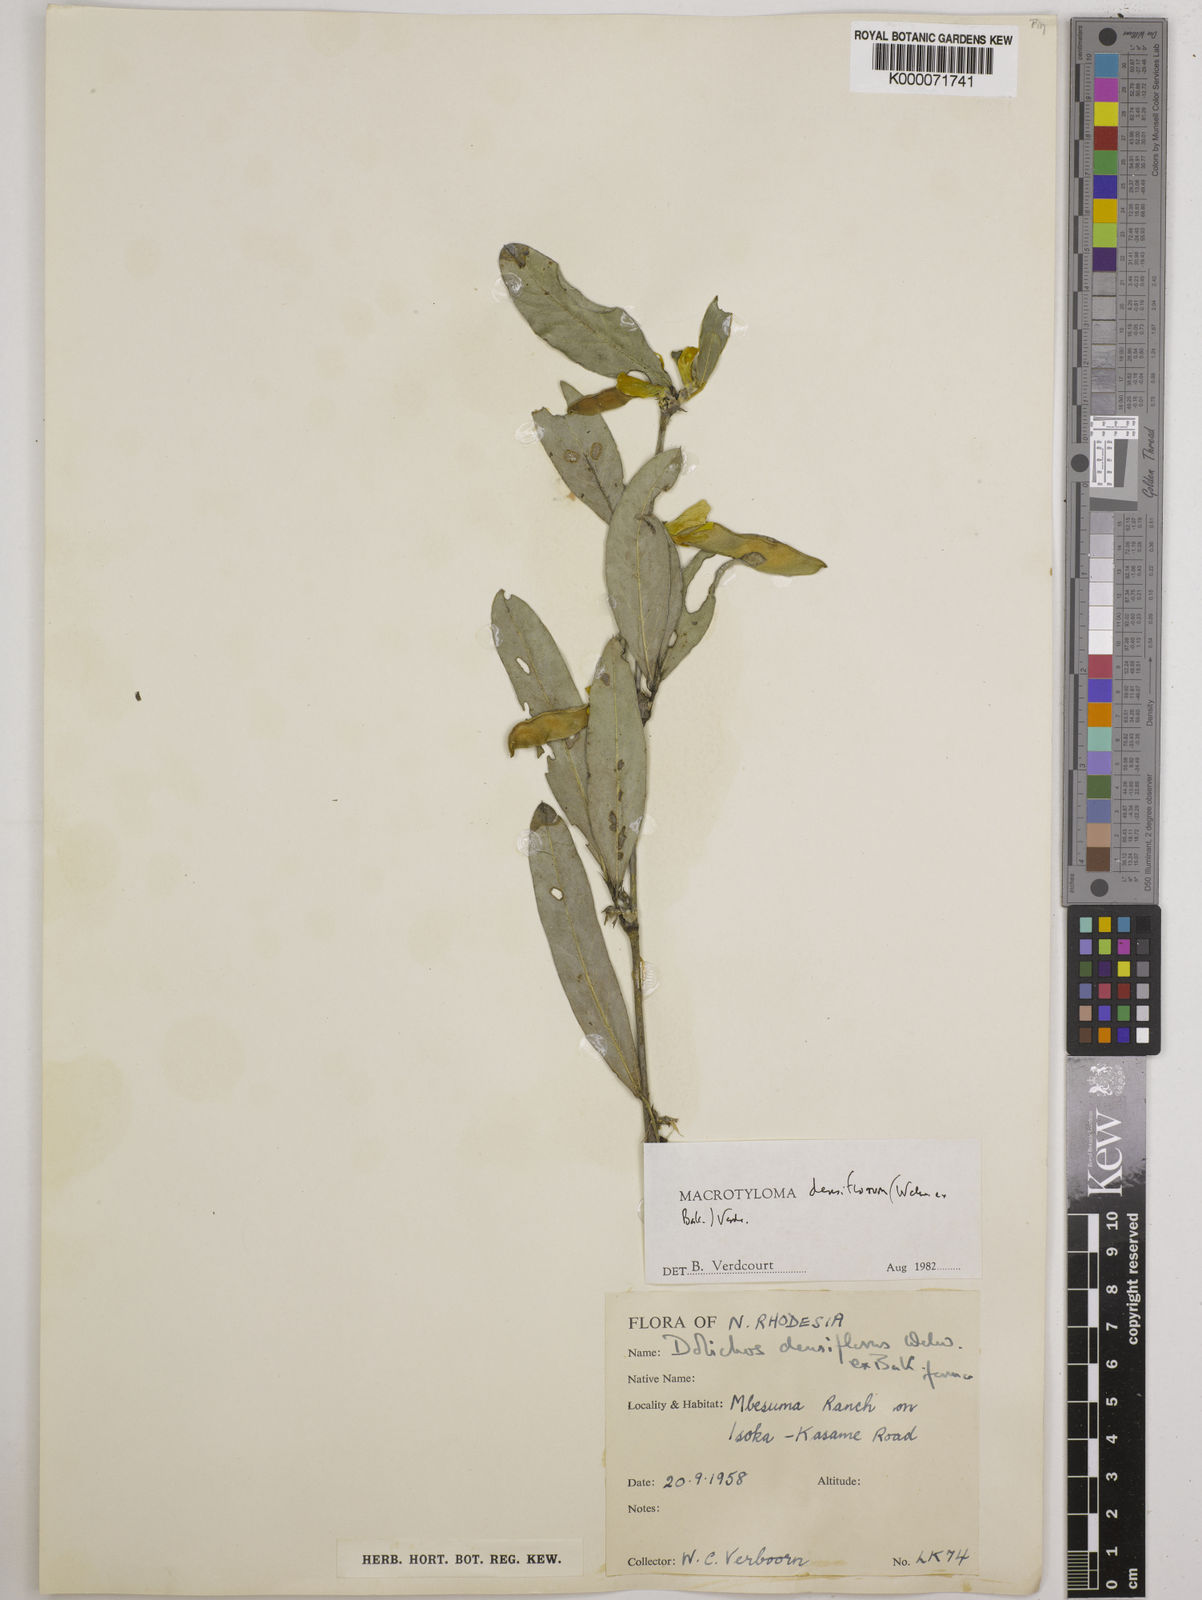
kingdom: Plantae
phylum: Tracheophyta
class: Magnoliopsida
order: Fabales
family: Fabaceae
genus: Macrotyloma
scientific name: Macrotyloma densiflorum
